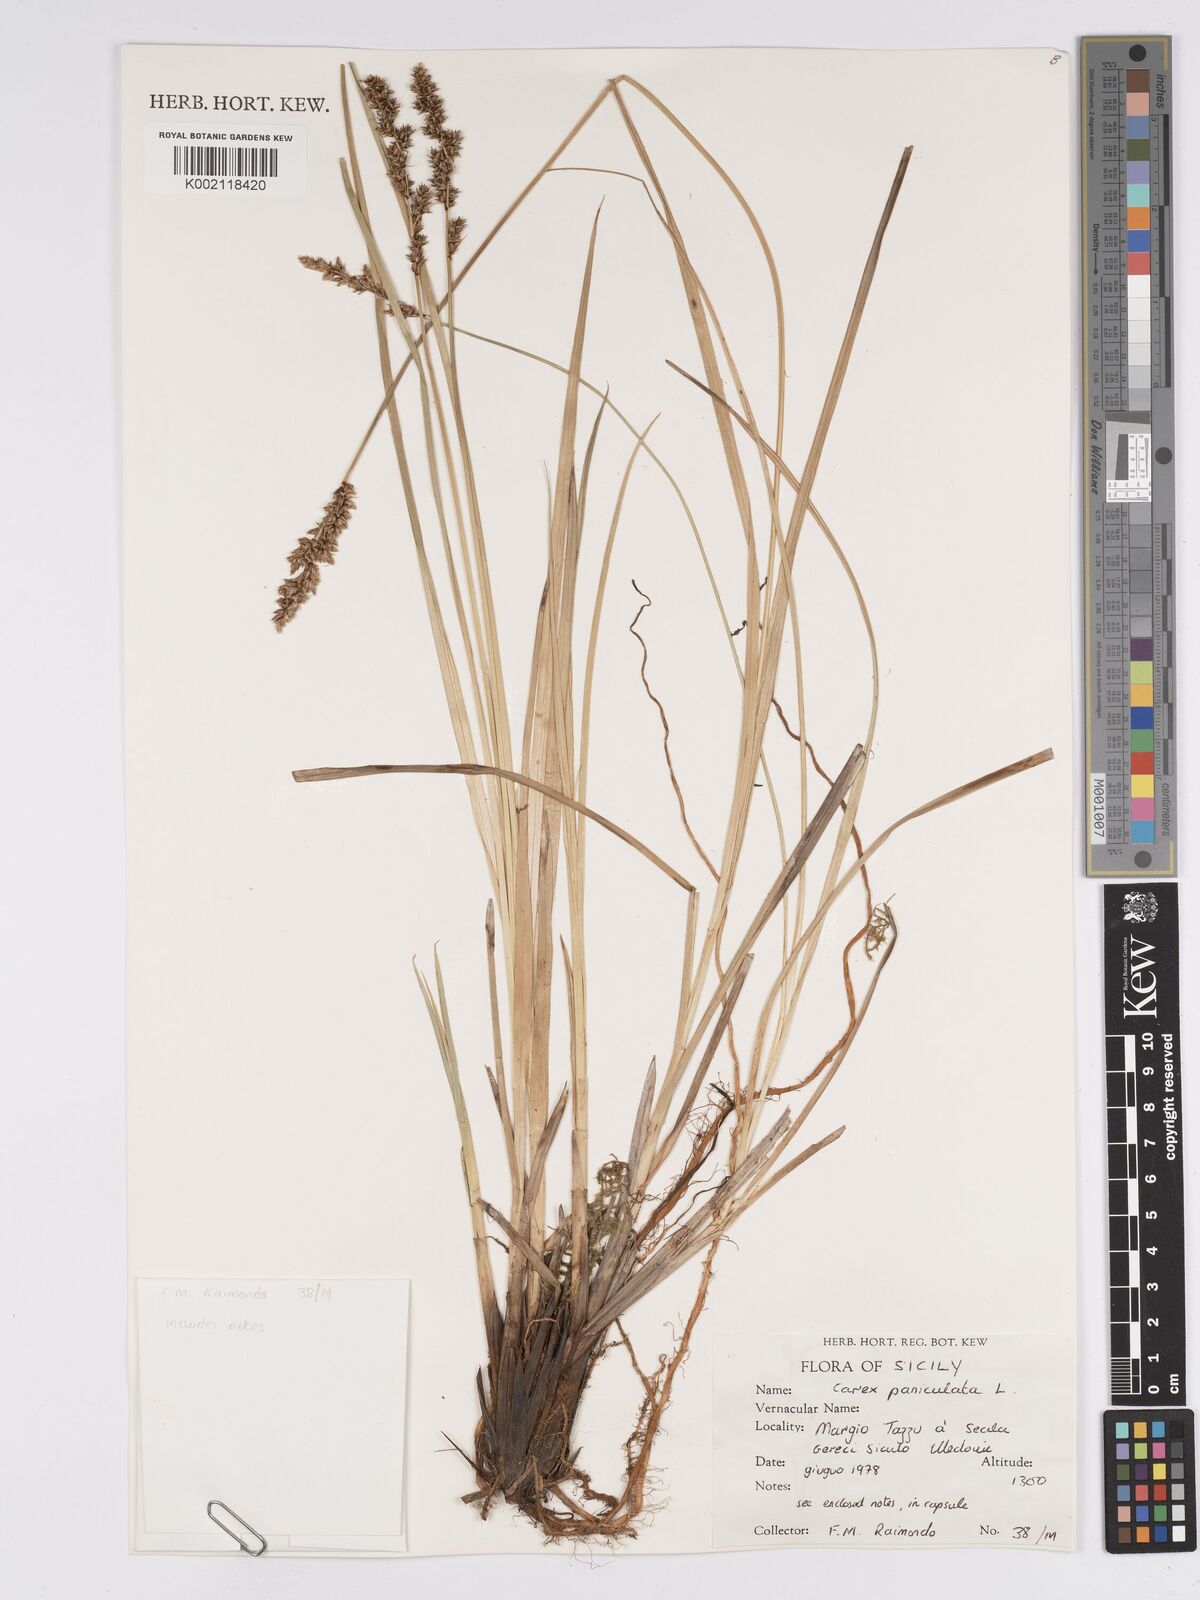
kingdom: Plantae
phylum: Tracheophyta
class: Liliopsida
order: Poales
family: Cyperaceae
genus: Carex
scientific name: Carex paniculata
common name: Greater tussock-sedge
